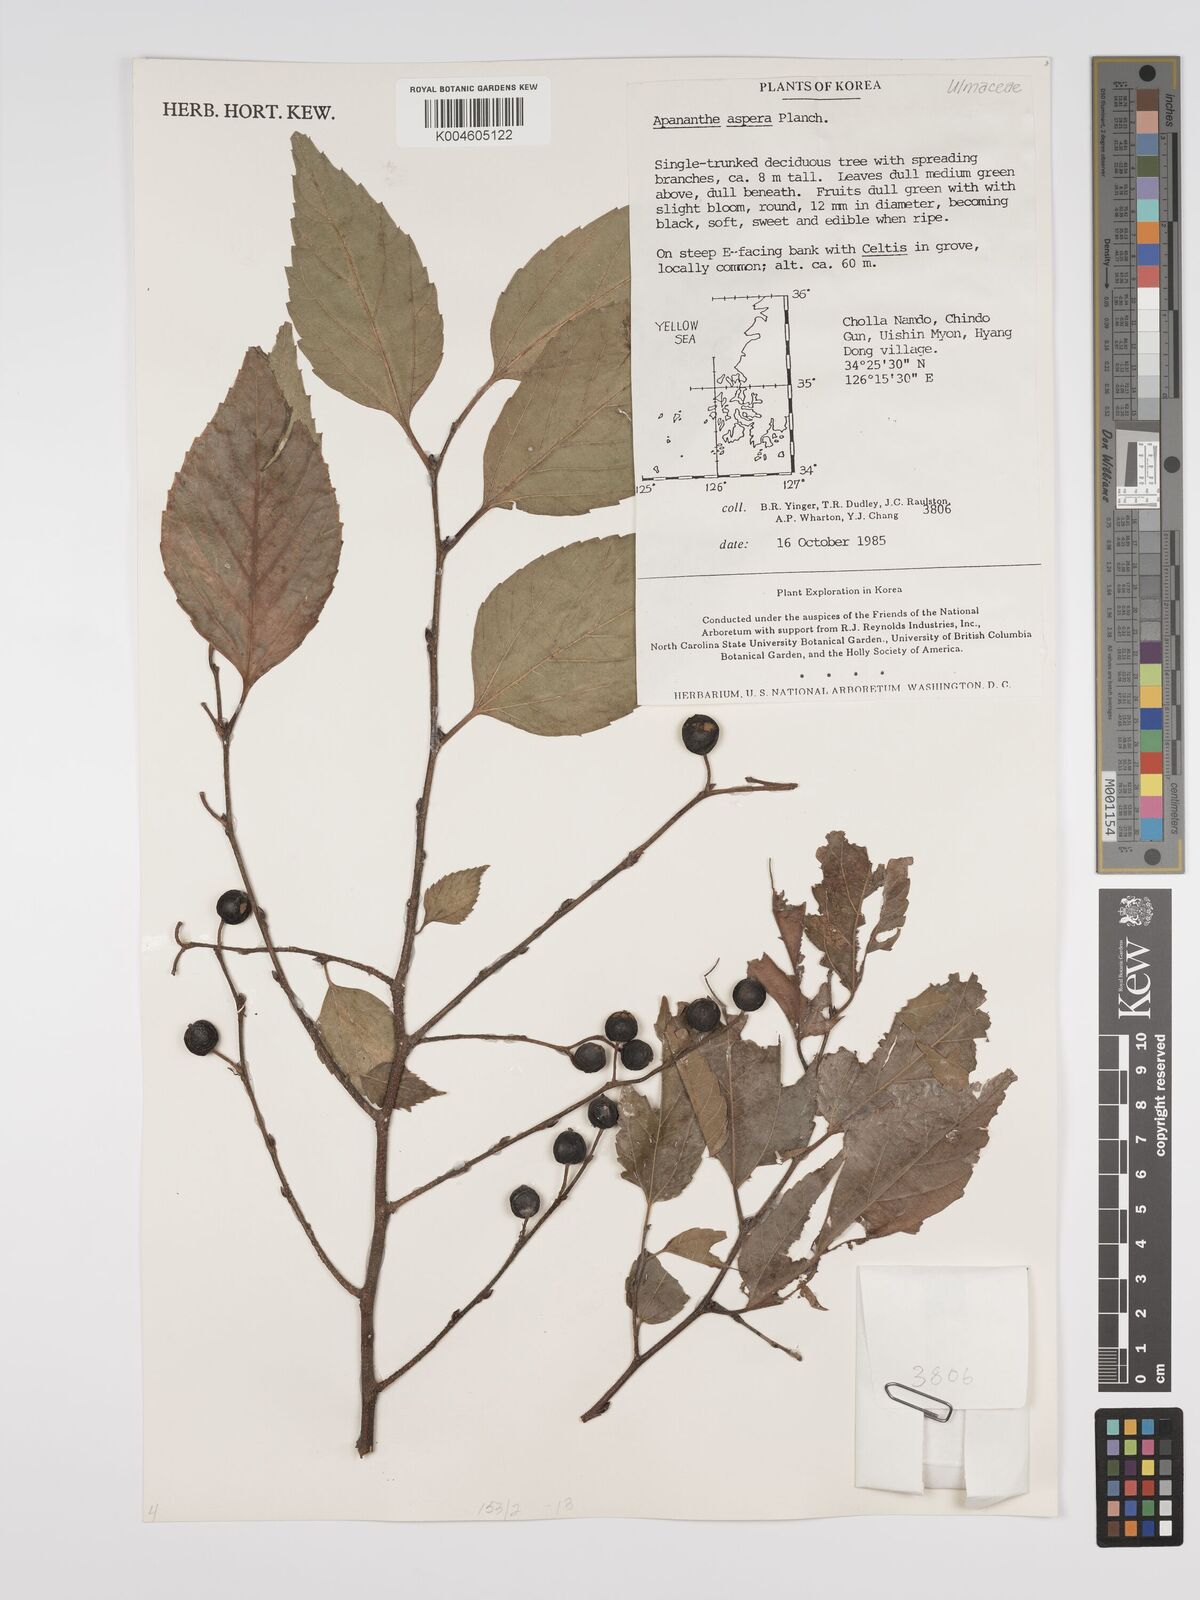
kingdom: Plantae
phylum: Tracheophyta
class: Magnoliopsida
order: Rosales
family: Cannabaceae
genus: Aphananthe
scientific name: Aphananthe aspera
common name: Mukutree
